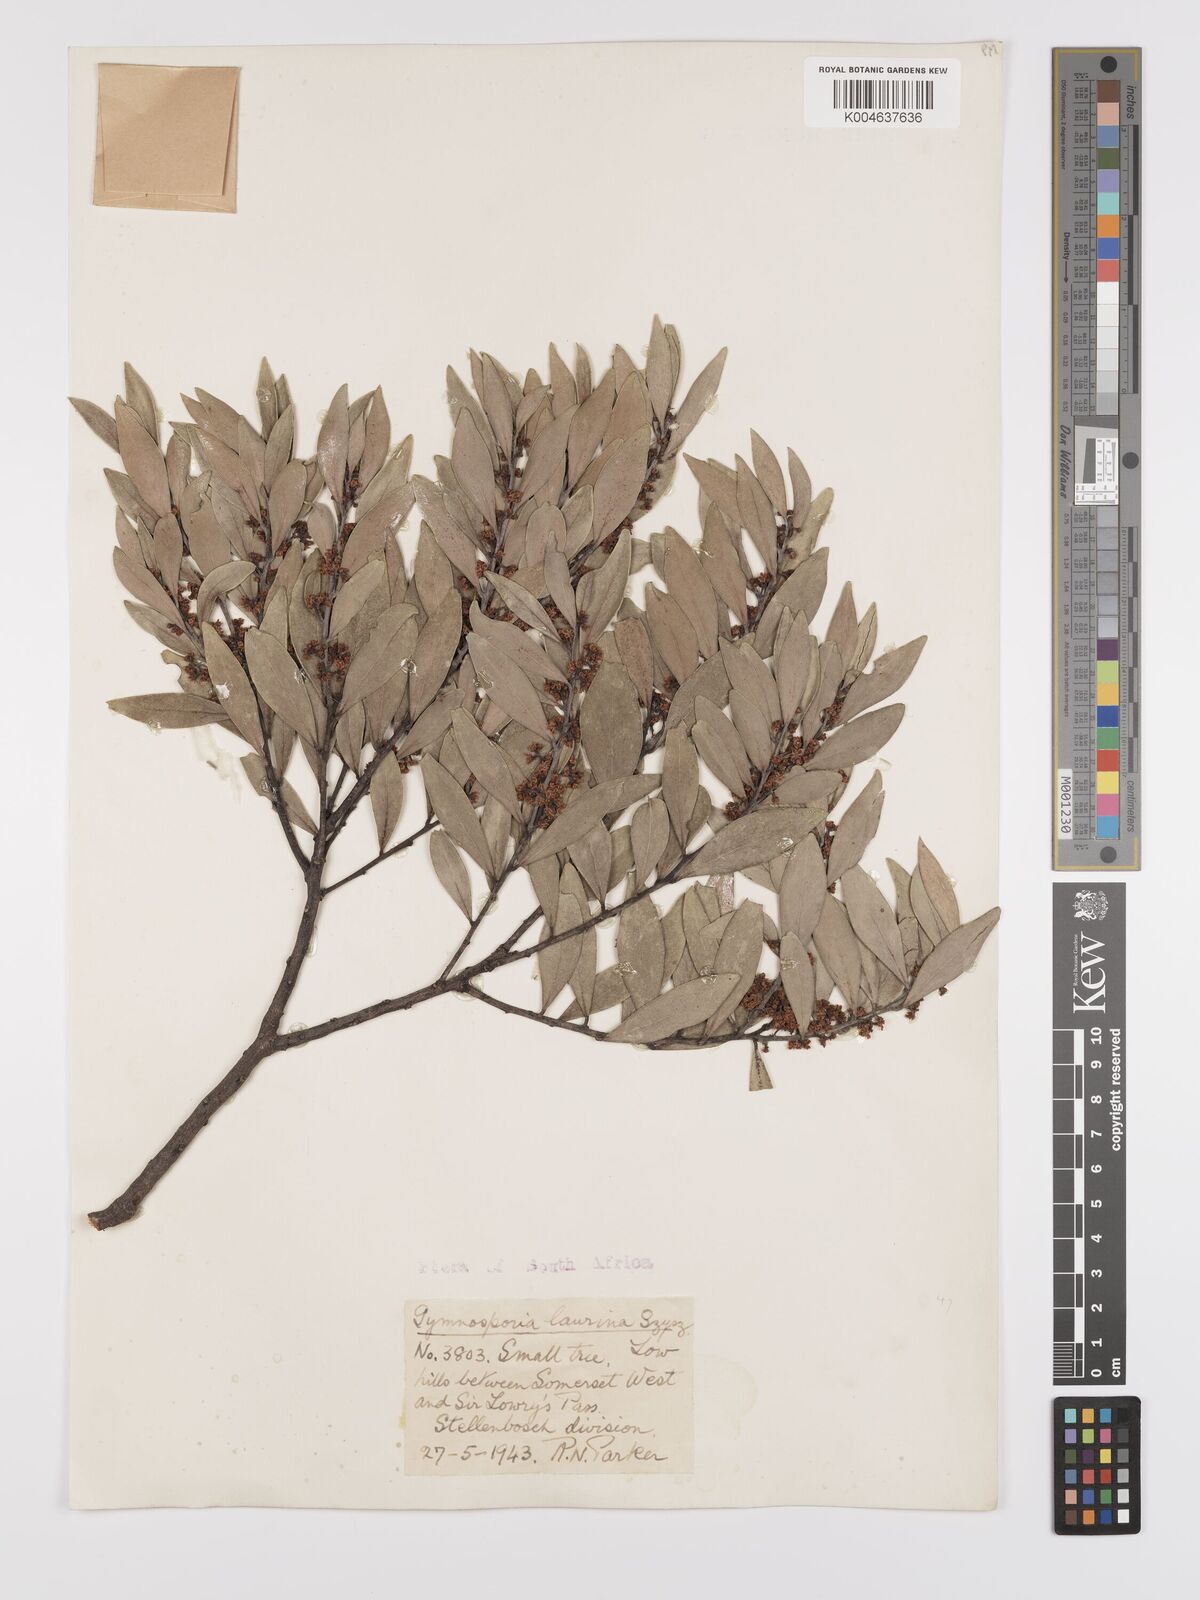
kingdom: Plantae
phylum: Tracheophyta
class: Magnoliopsida
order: Celastrales
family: Celastraceae
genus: Gymnosporia
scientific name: Gymnosporia laurina
